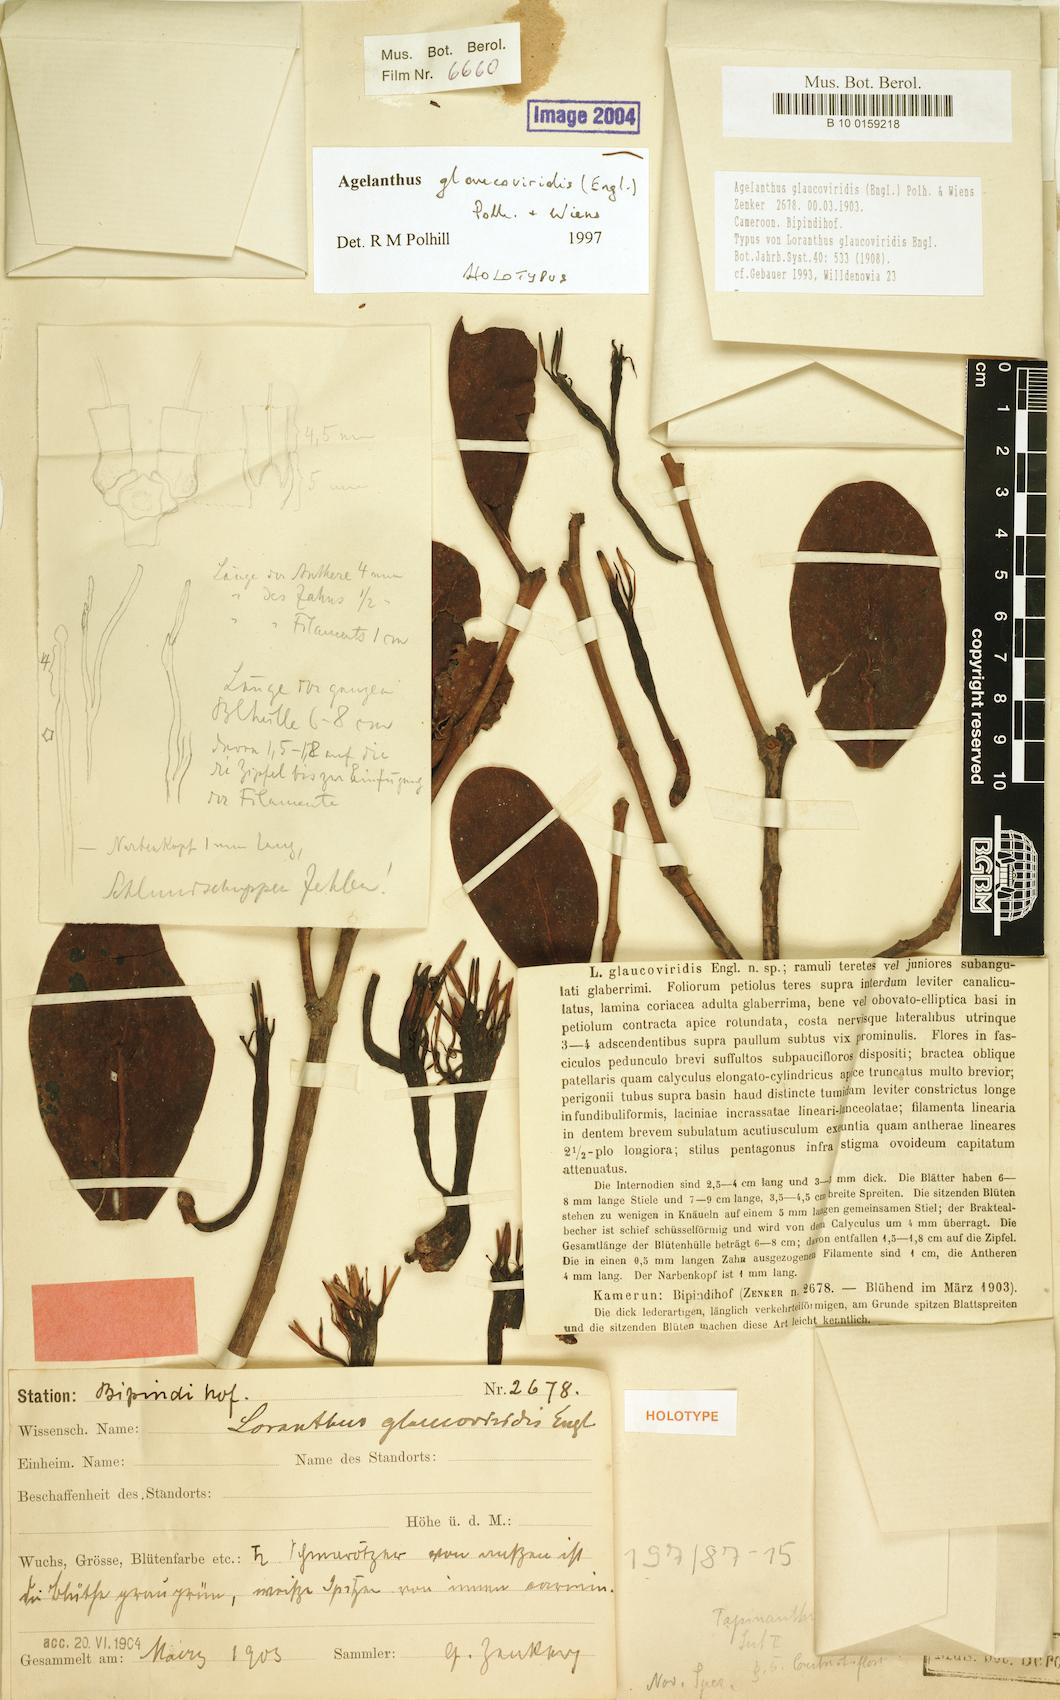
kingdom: Plantae
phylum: Tracheophyta
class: Magnoliopsida
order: Santalales
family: Loranthaceae
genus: Agelanthus
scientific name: Agelanthus glaucoviridis
